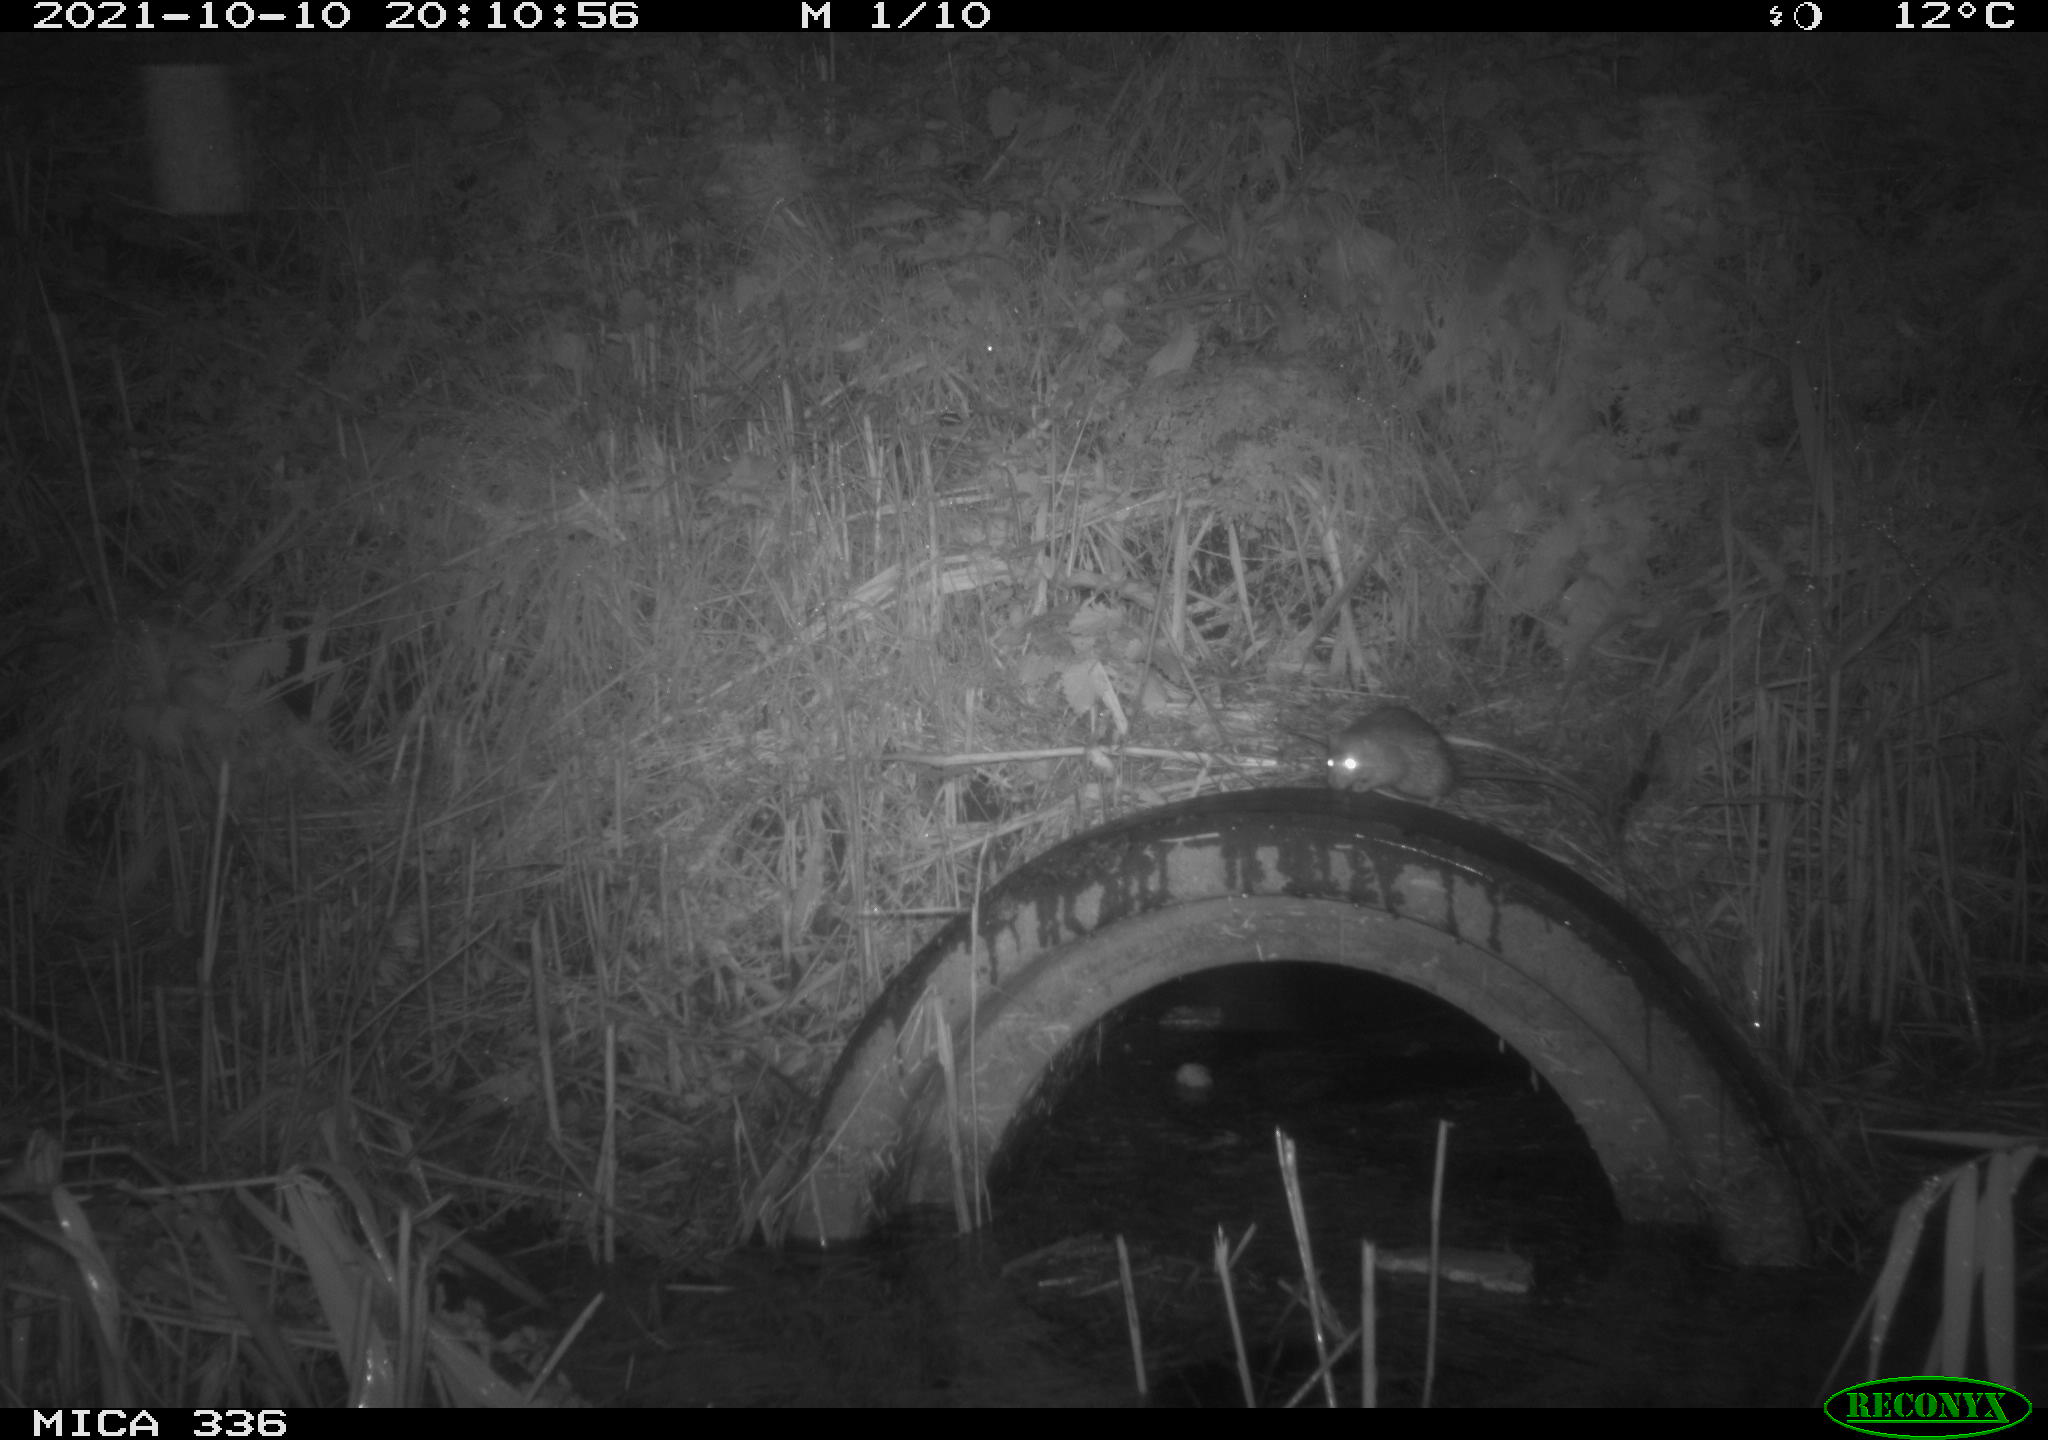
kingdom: Animalia
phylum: Chordata
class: Mammalia
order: Rodentia
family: Muridae
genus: Rattus
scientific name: Rattus norvegicus
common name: Brown rat
